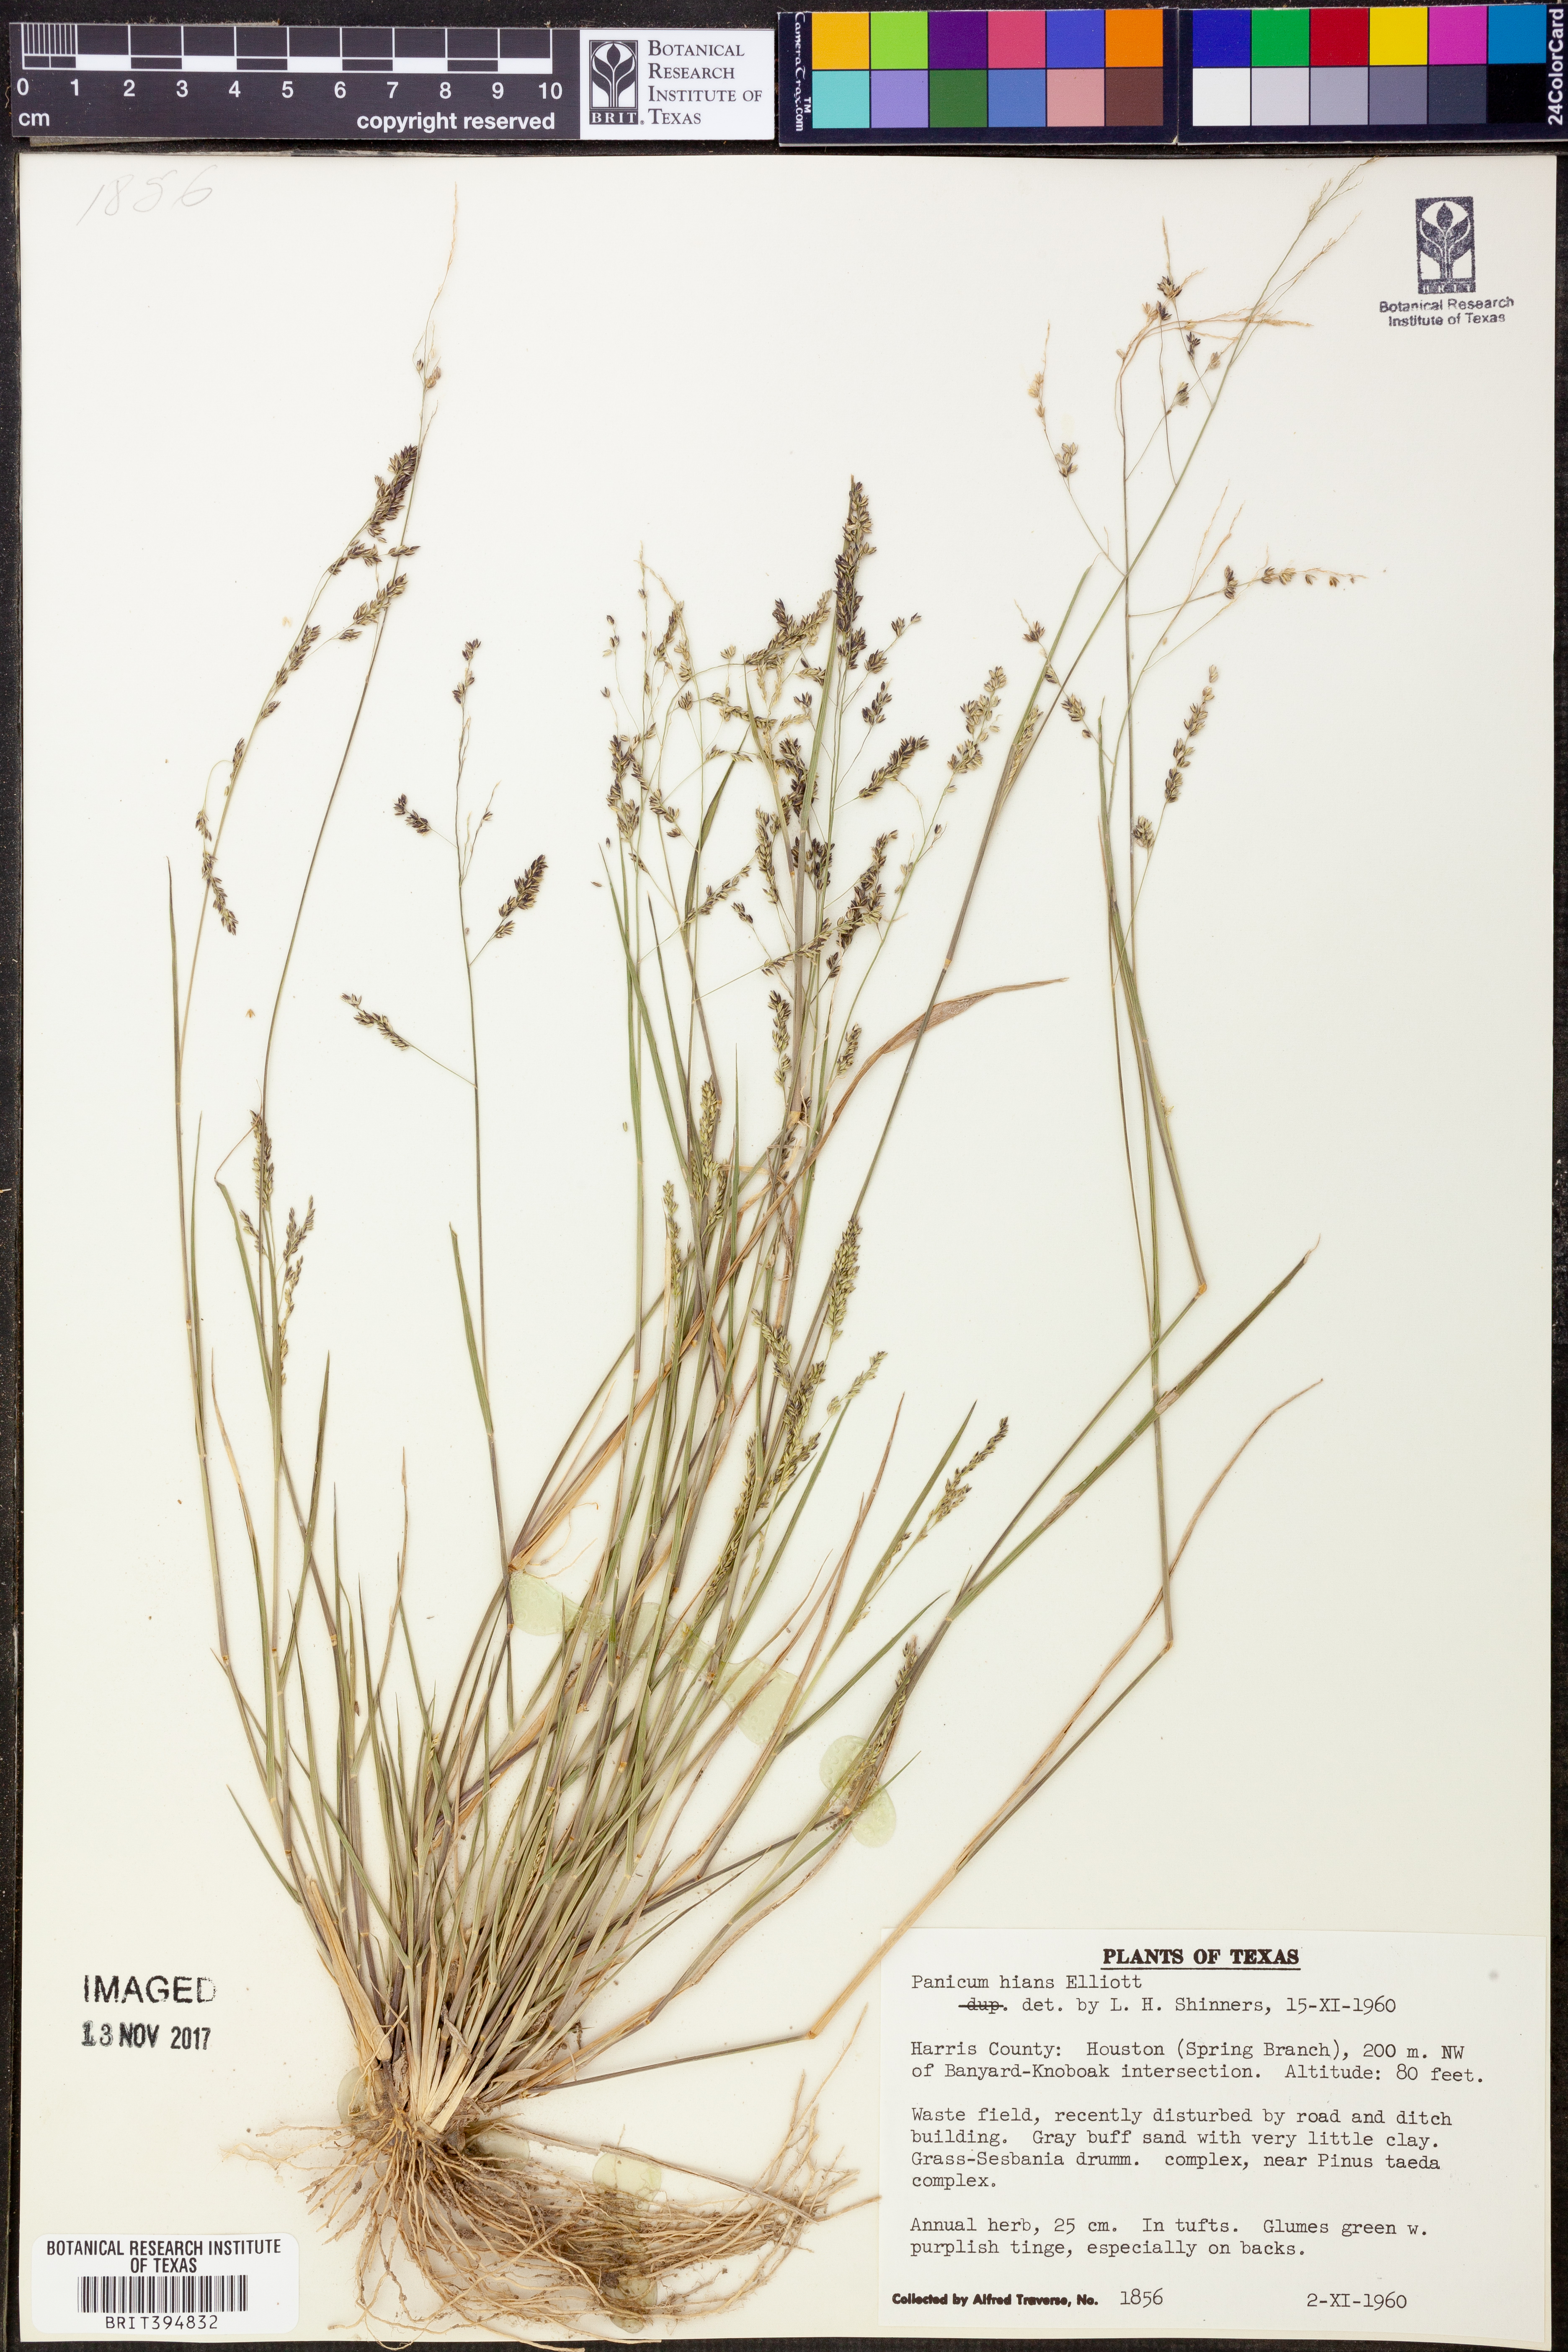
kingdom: Plantae
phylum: Tracheophyta
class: Liliopsida
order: Poales
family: Poaceae
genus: Coleataenia
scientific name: Coleataenia stenodes
